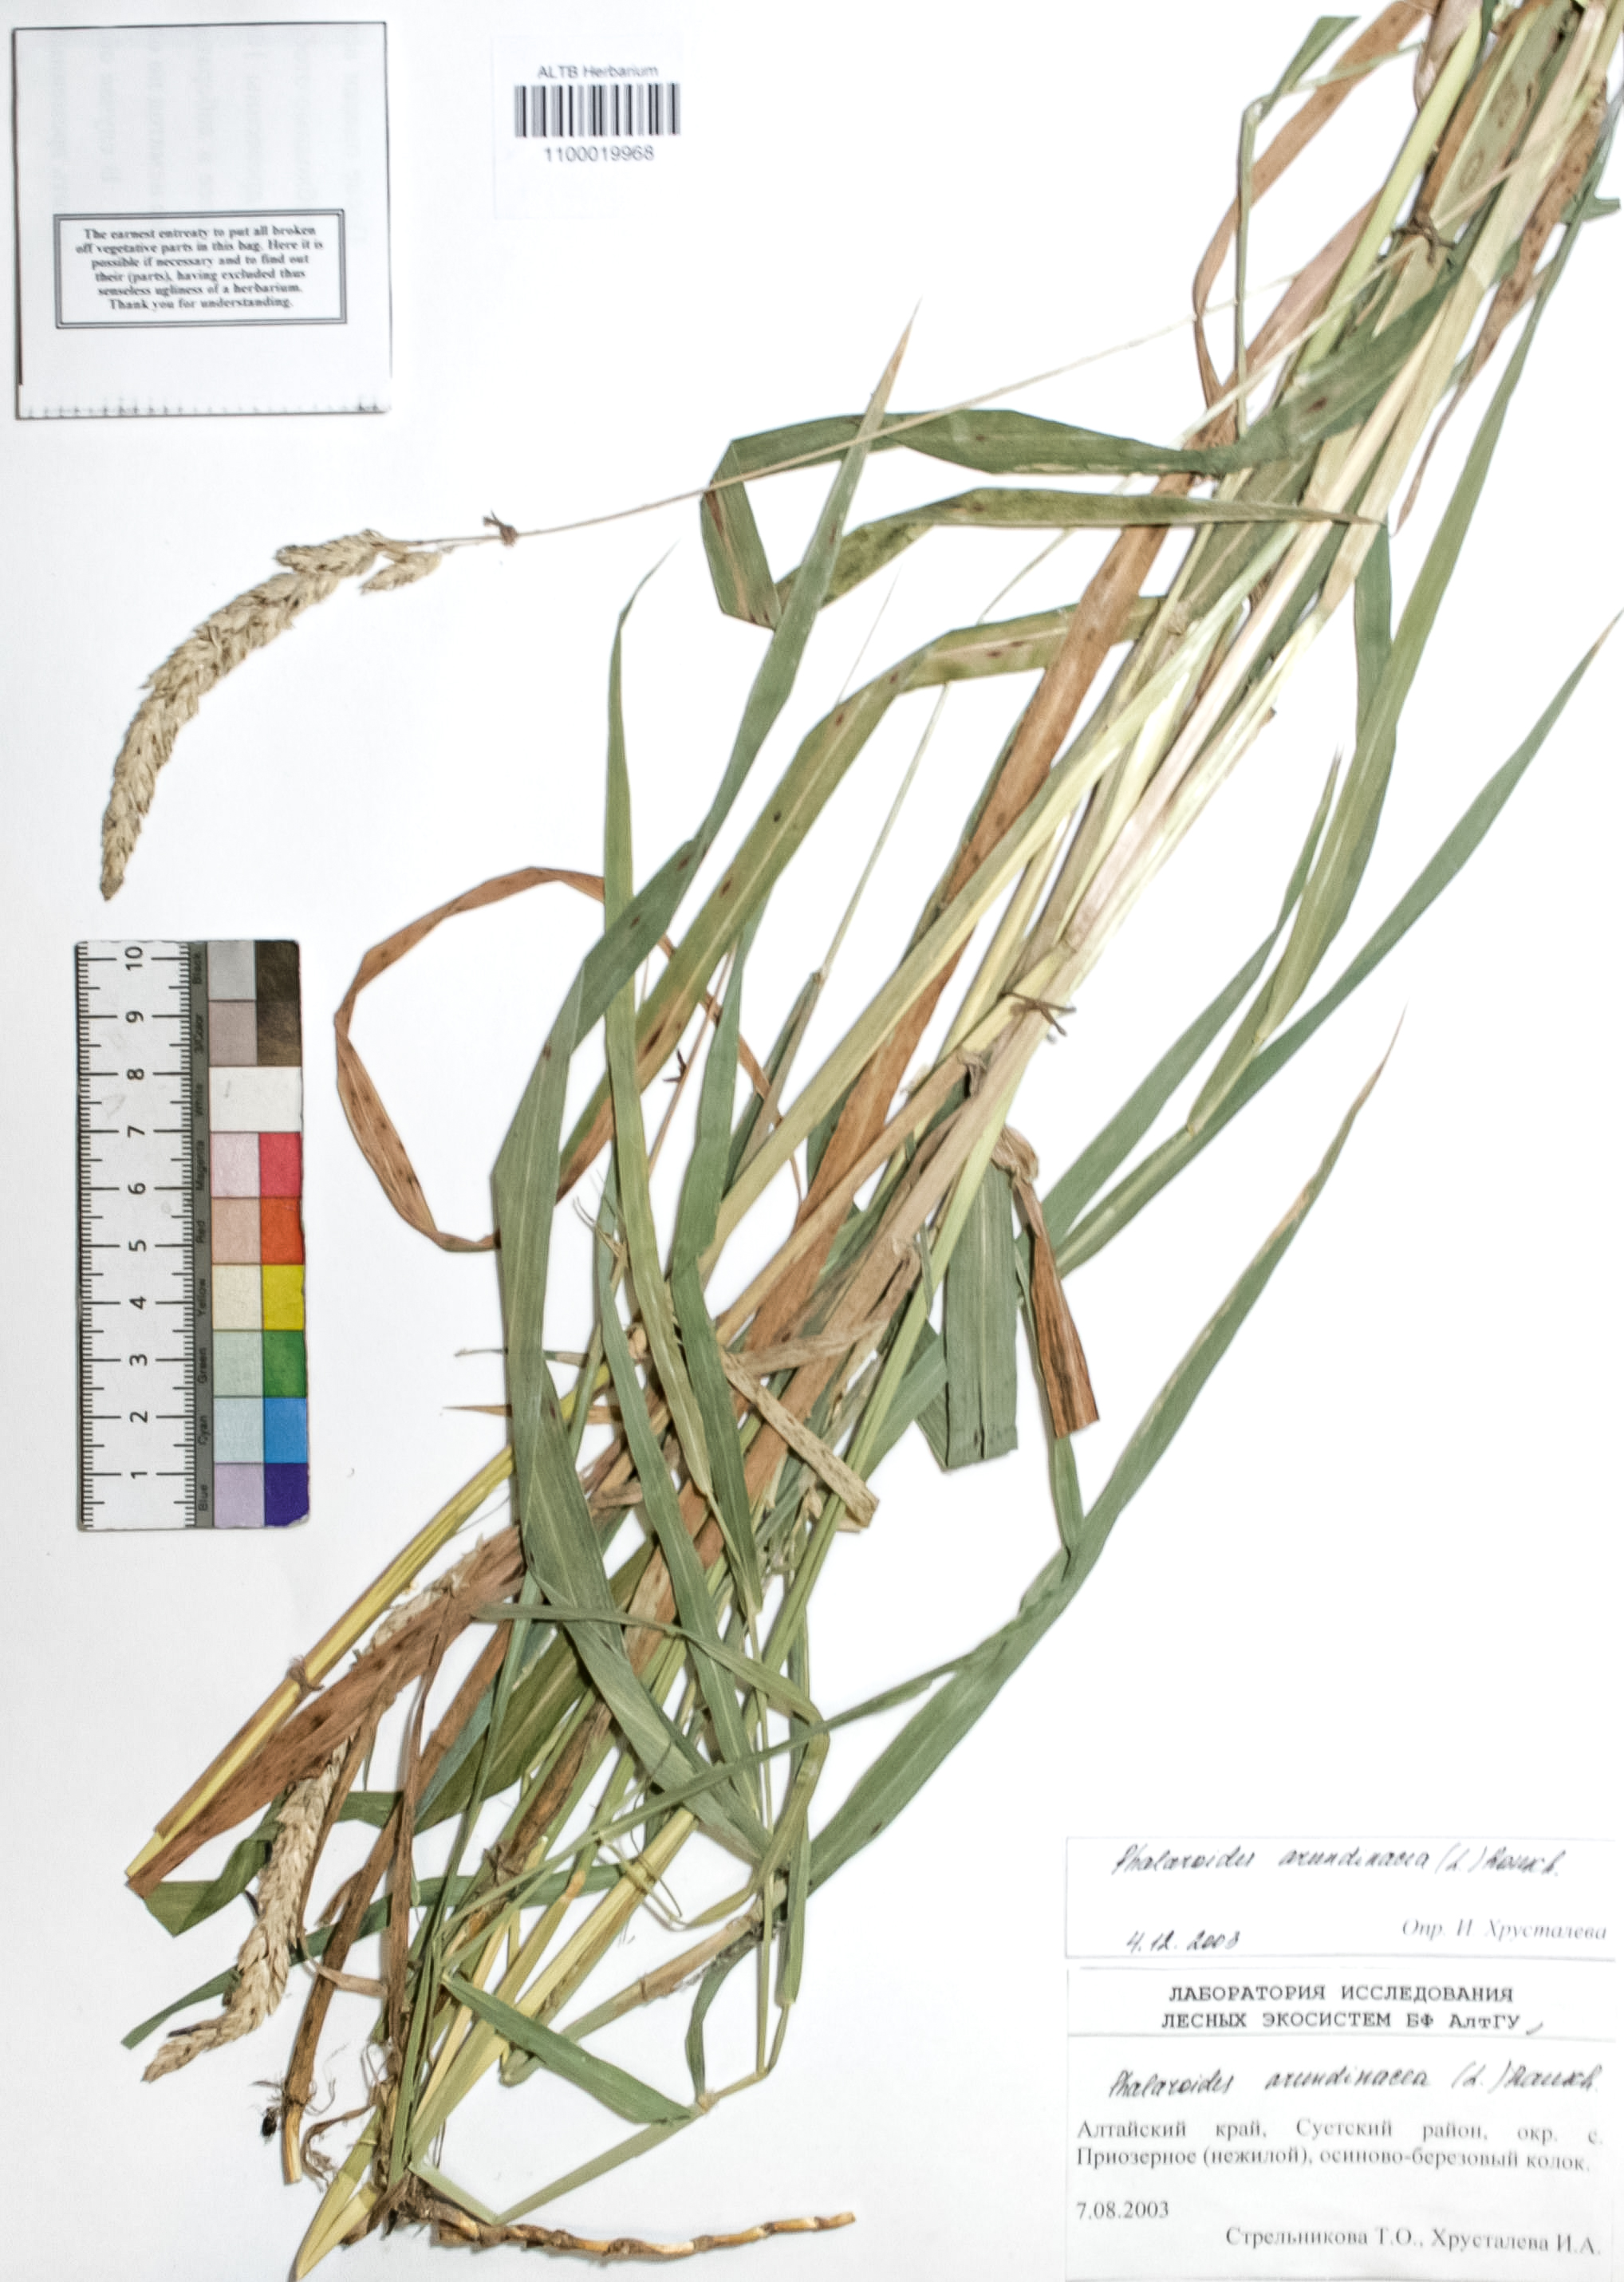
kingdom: Plantae
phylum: Tracheophyta
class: Liliopsida
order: Poales
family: Poaceae
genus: Phalaris
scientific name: Phalaris arundinacea
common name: Reed canary-grass
